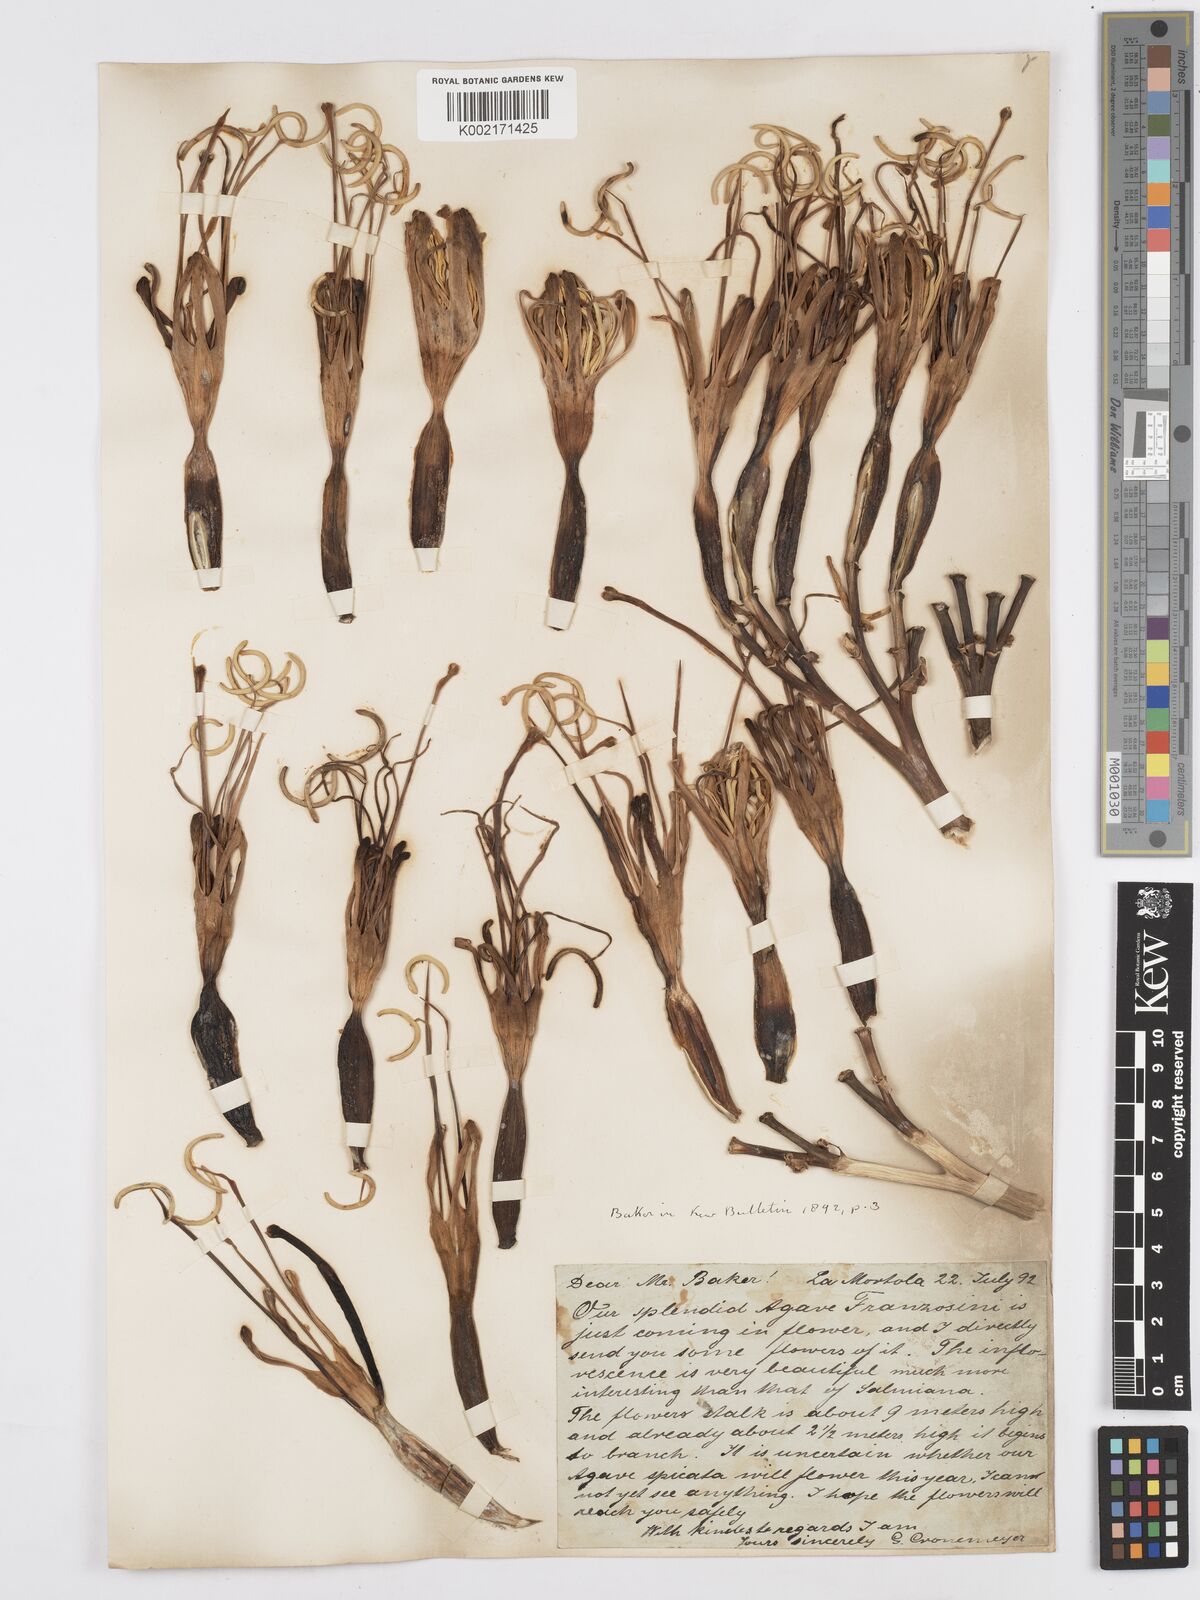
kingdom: Plantae
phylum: Tracheophyta
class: Liliopsida
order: Asparagales
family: Asparagaceae
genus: Agave
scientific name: Agave americana
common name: Centuryplant
